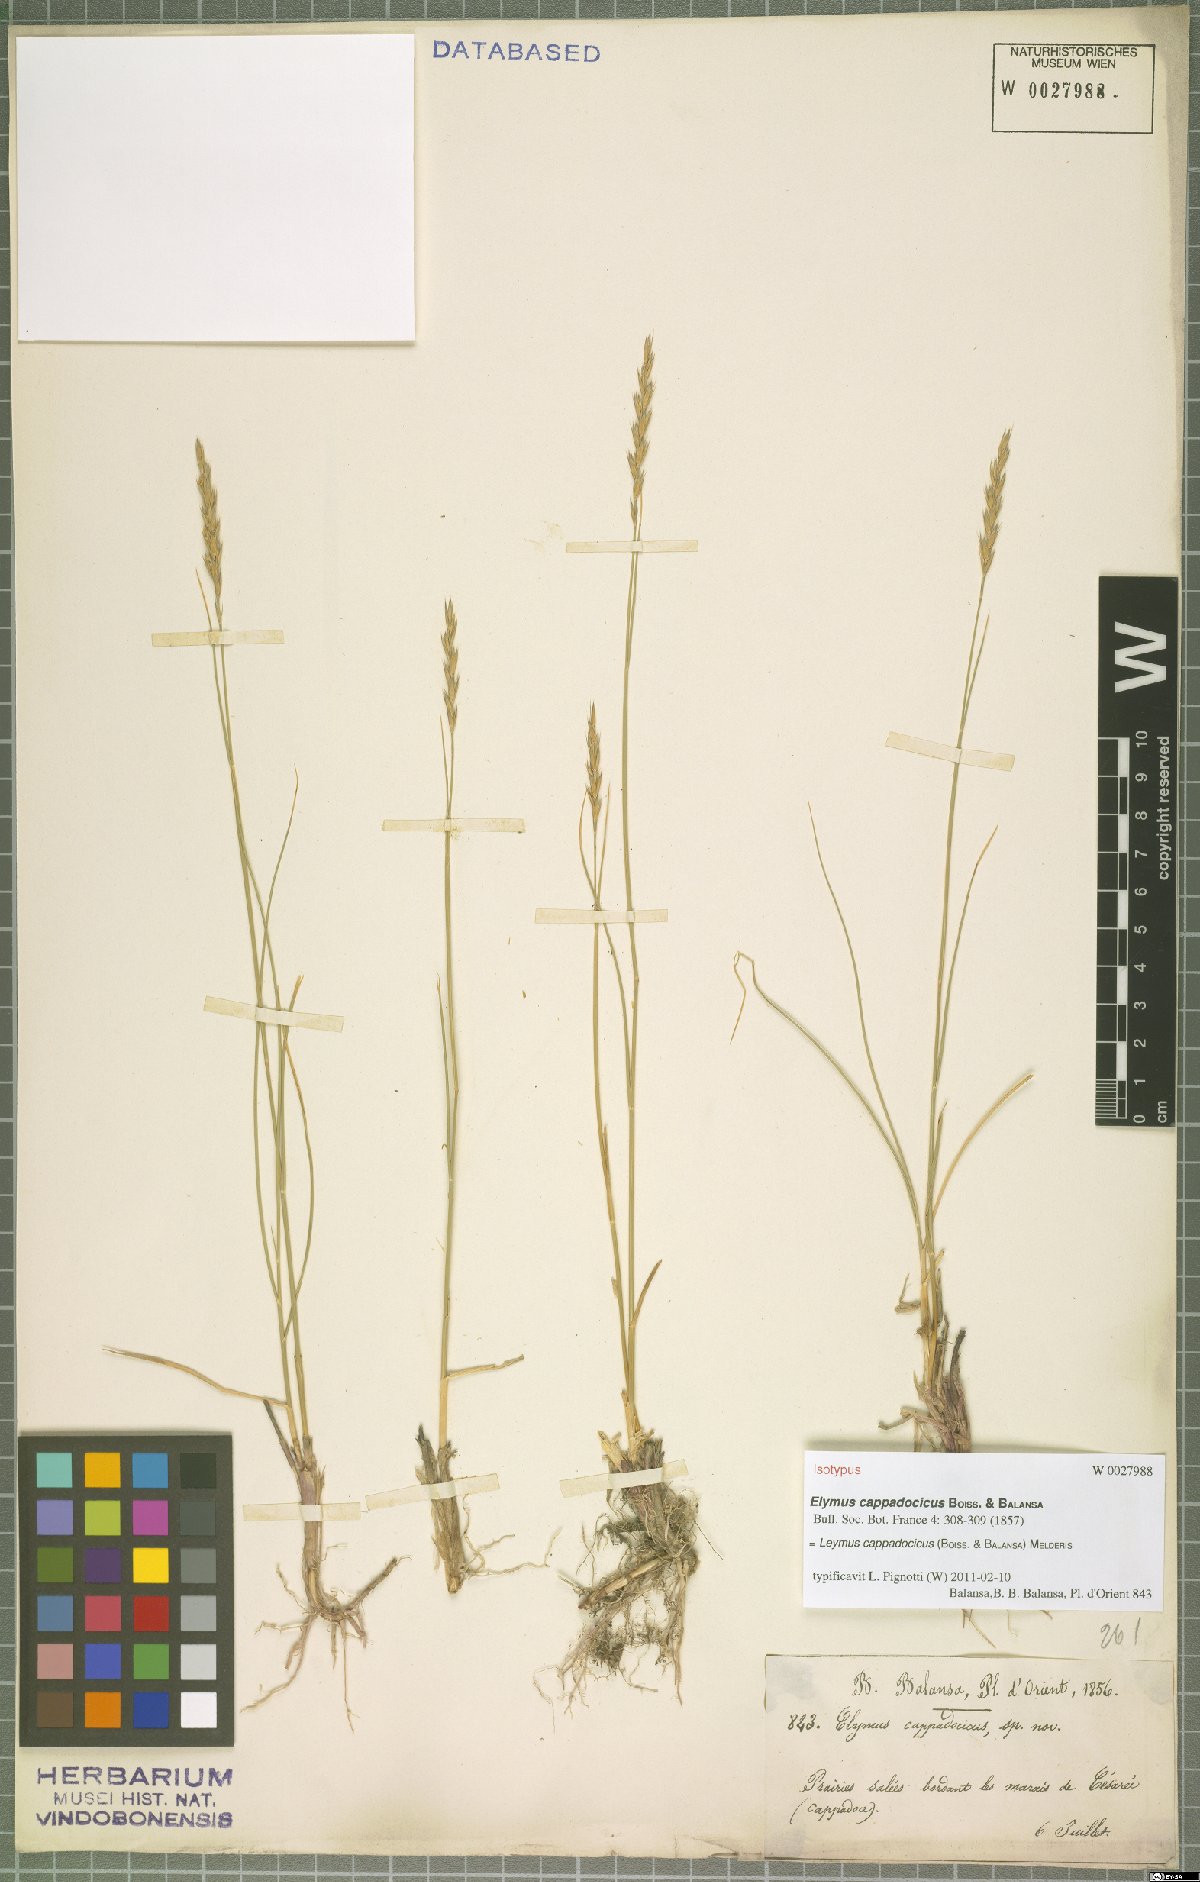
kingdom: Plantae
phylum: Tracheophyta
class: Liliopsida
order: Poales
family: Poaceae
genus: Leymus
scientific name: Leymus cappadocicus
